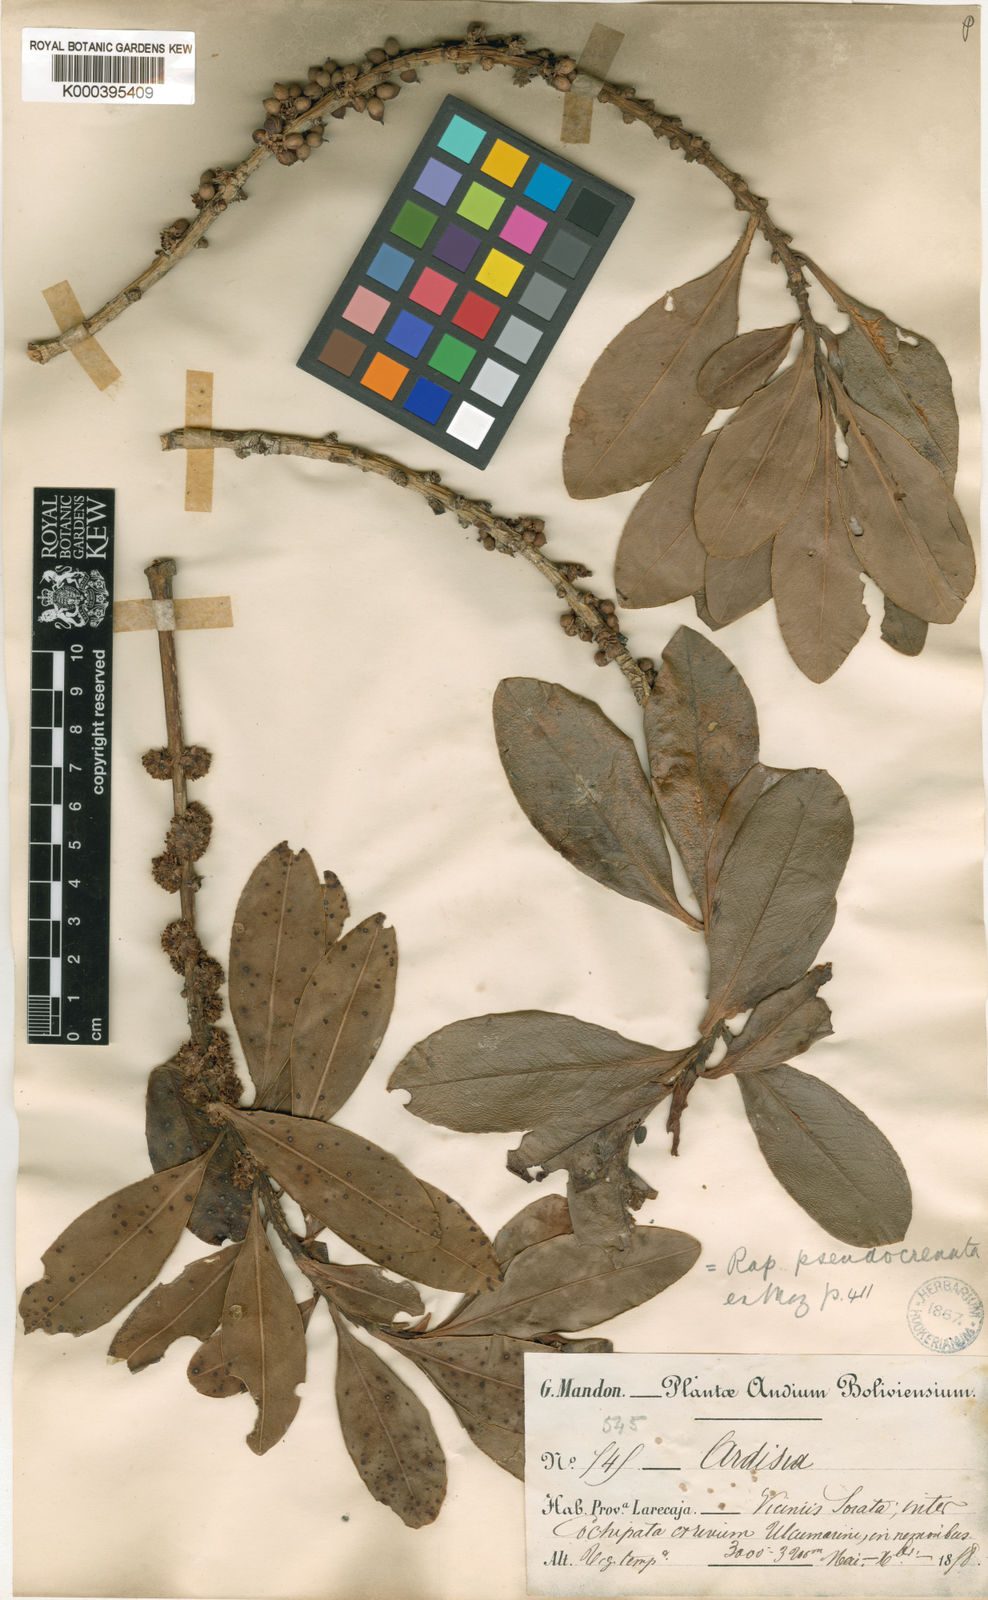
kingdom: Plantae
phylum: Tracheophyta
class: Magnoliopsida
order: Ericales
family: Primulaceae
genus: Myrsine
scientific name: Myrsine pseudocrenata
